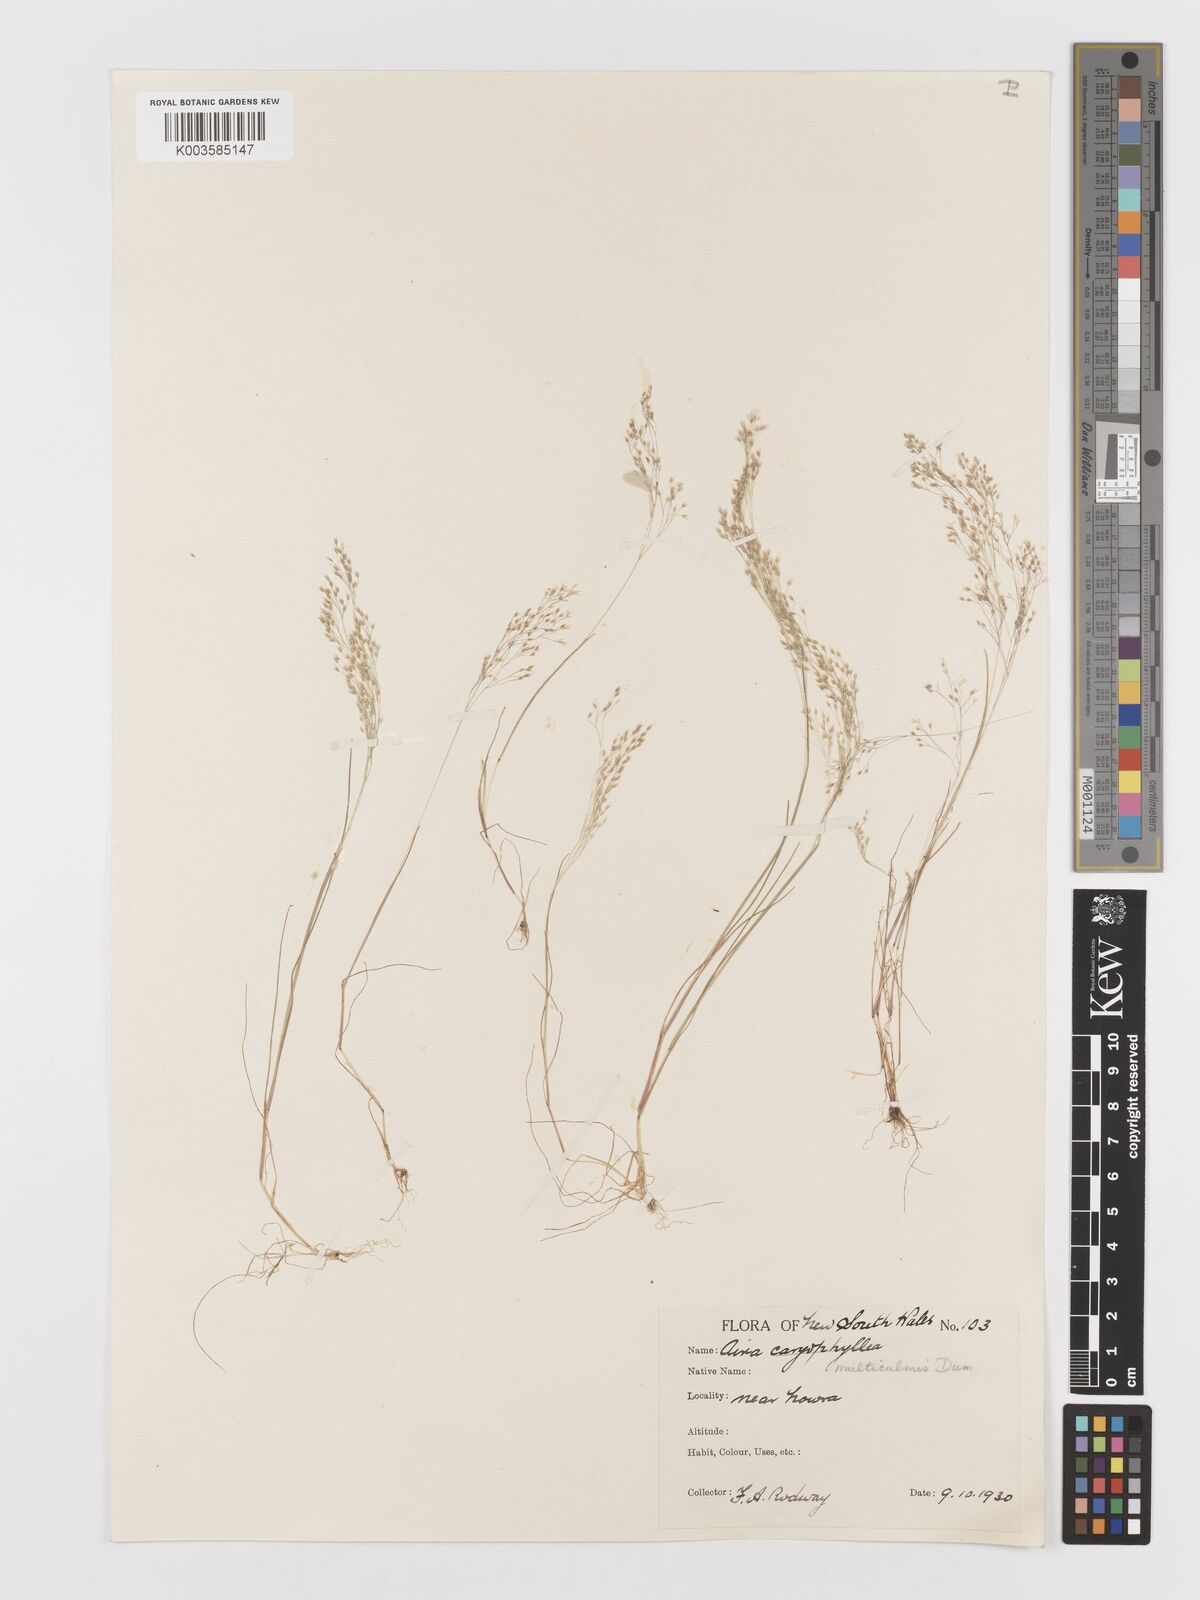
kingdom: Plantae
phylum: Tracheophyta
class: Liliopsida
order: Poales
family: Poaceae
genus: Aira
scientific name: Aira cupaniana
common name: Silver hairgrass
